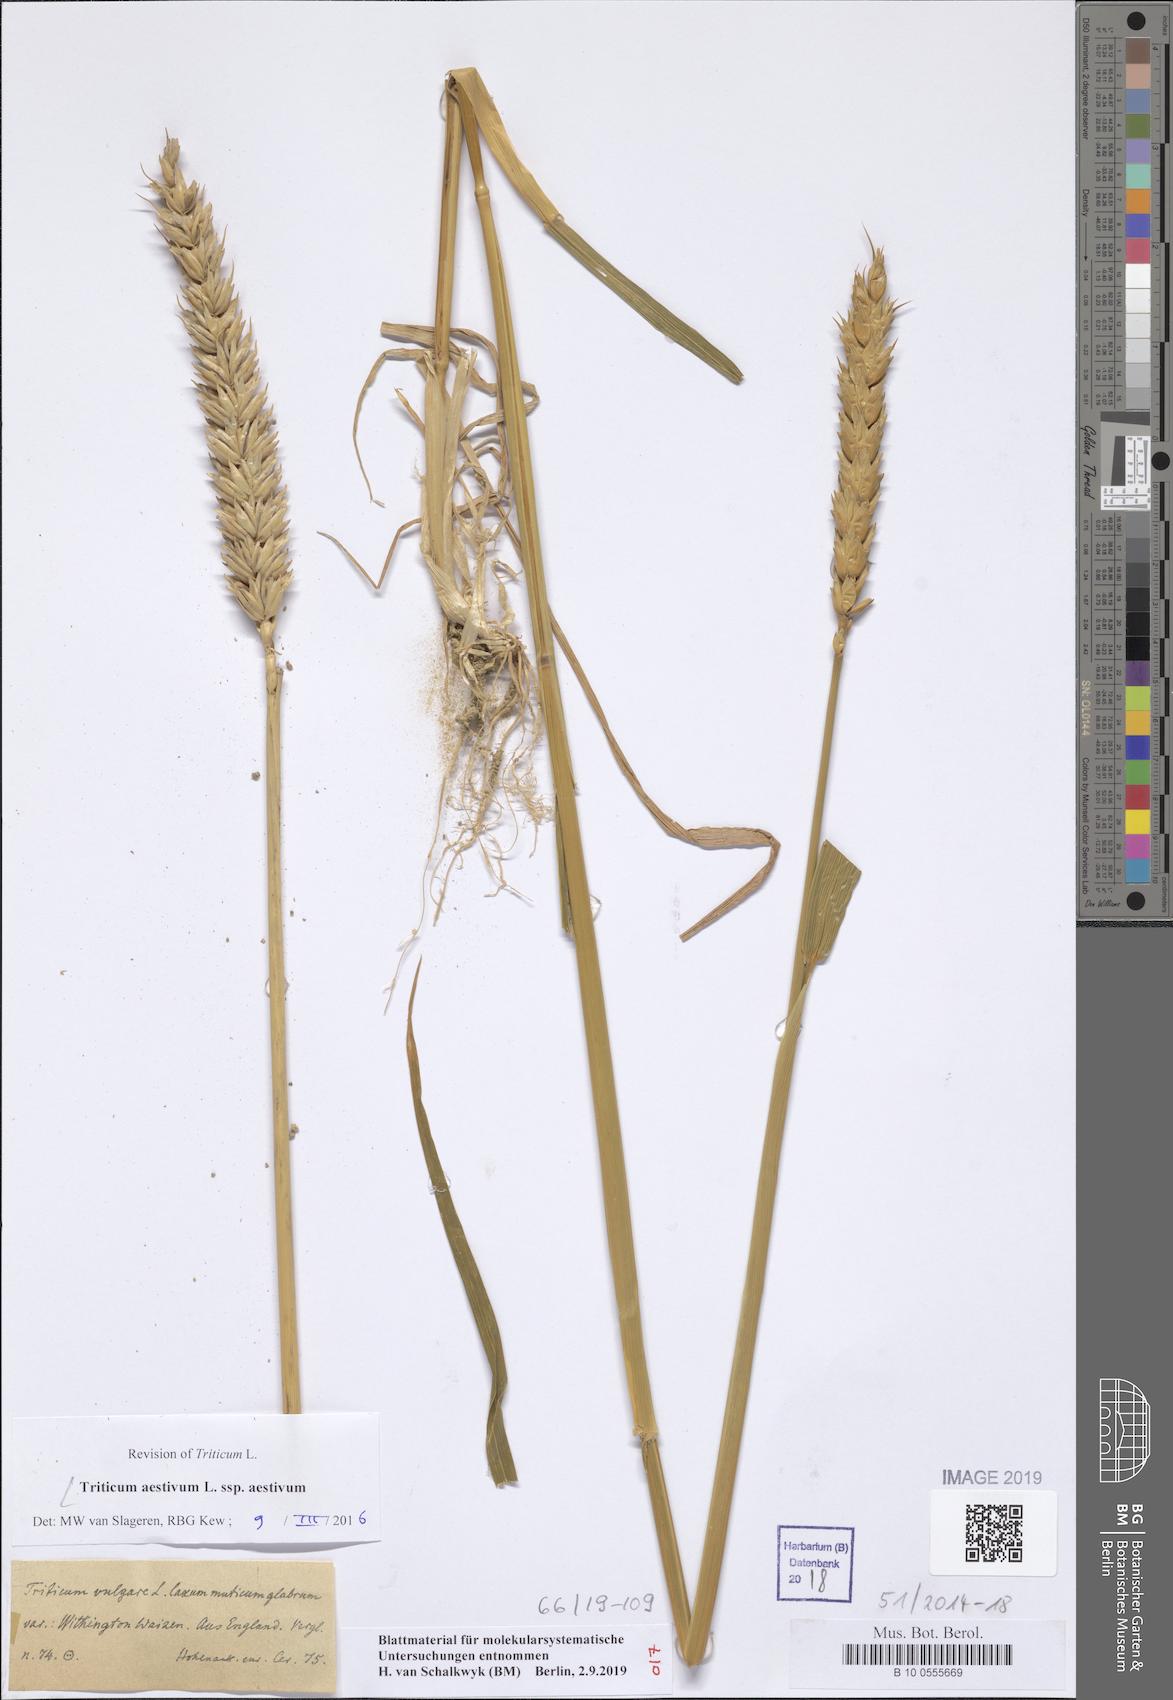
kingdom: Plantae
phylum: Tracheophyta
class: Liliopsida
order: Poales
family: Poaceae
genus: Triticum
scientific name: Triticum aestivum
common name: Common wheat
